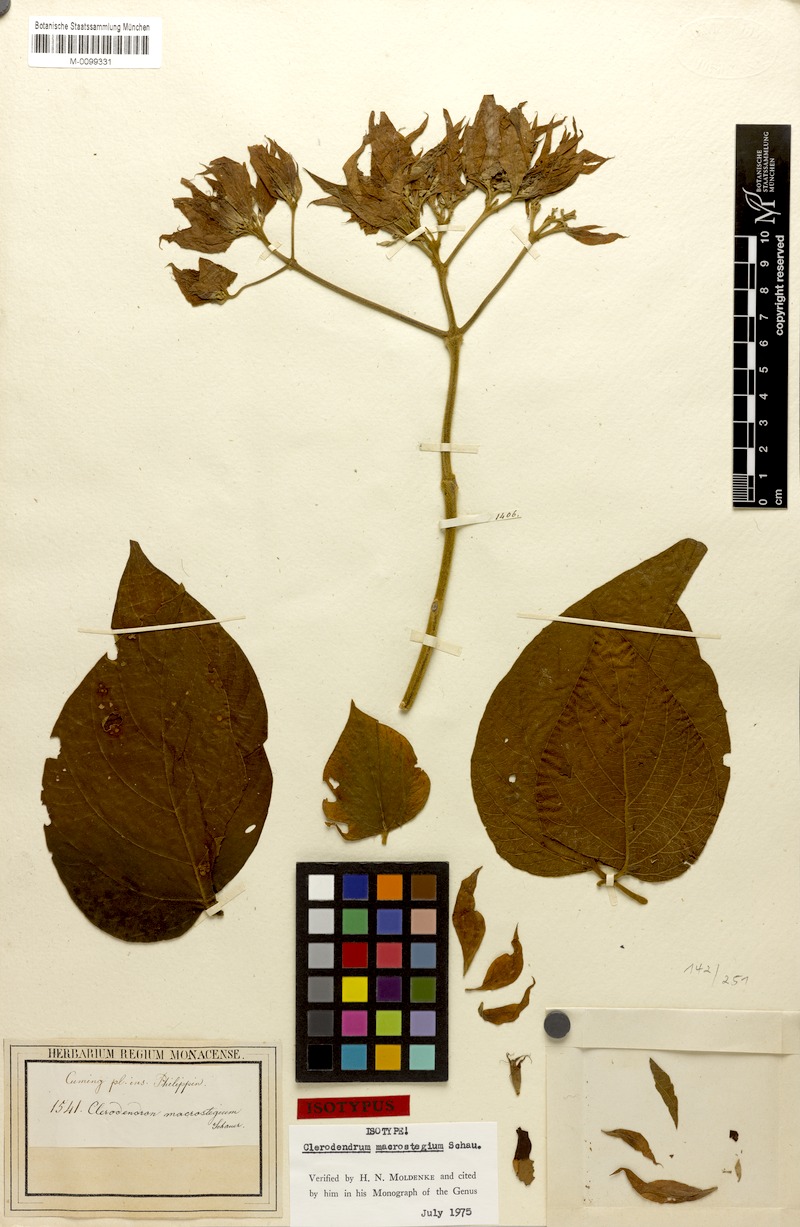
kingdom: Plantae
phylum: Tracheophyta
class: Magnoliopsida
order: Lamiales
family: Lamiaceae
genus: Clerodendrum
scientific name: Clerodendrum macrostegium
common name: Velvetleaf glorybower
